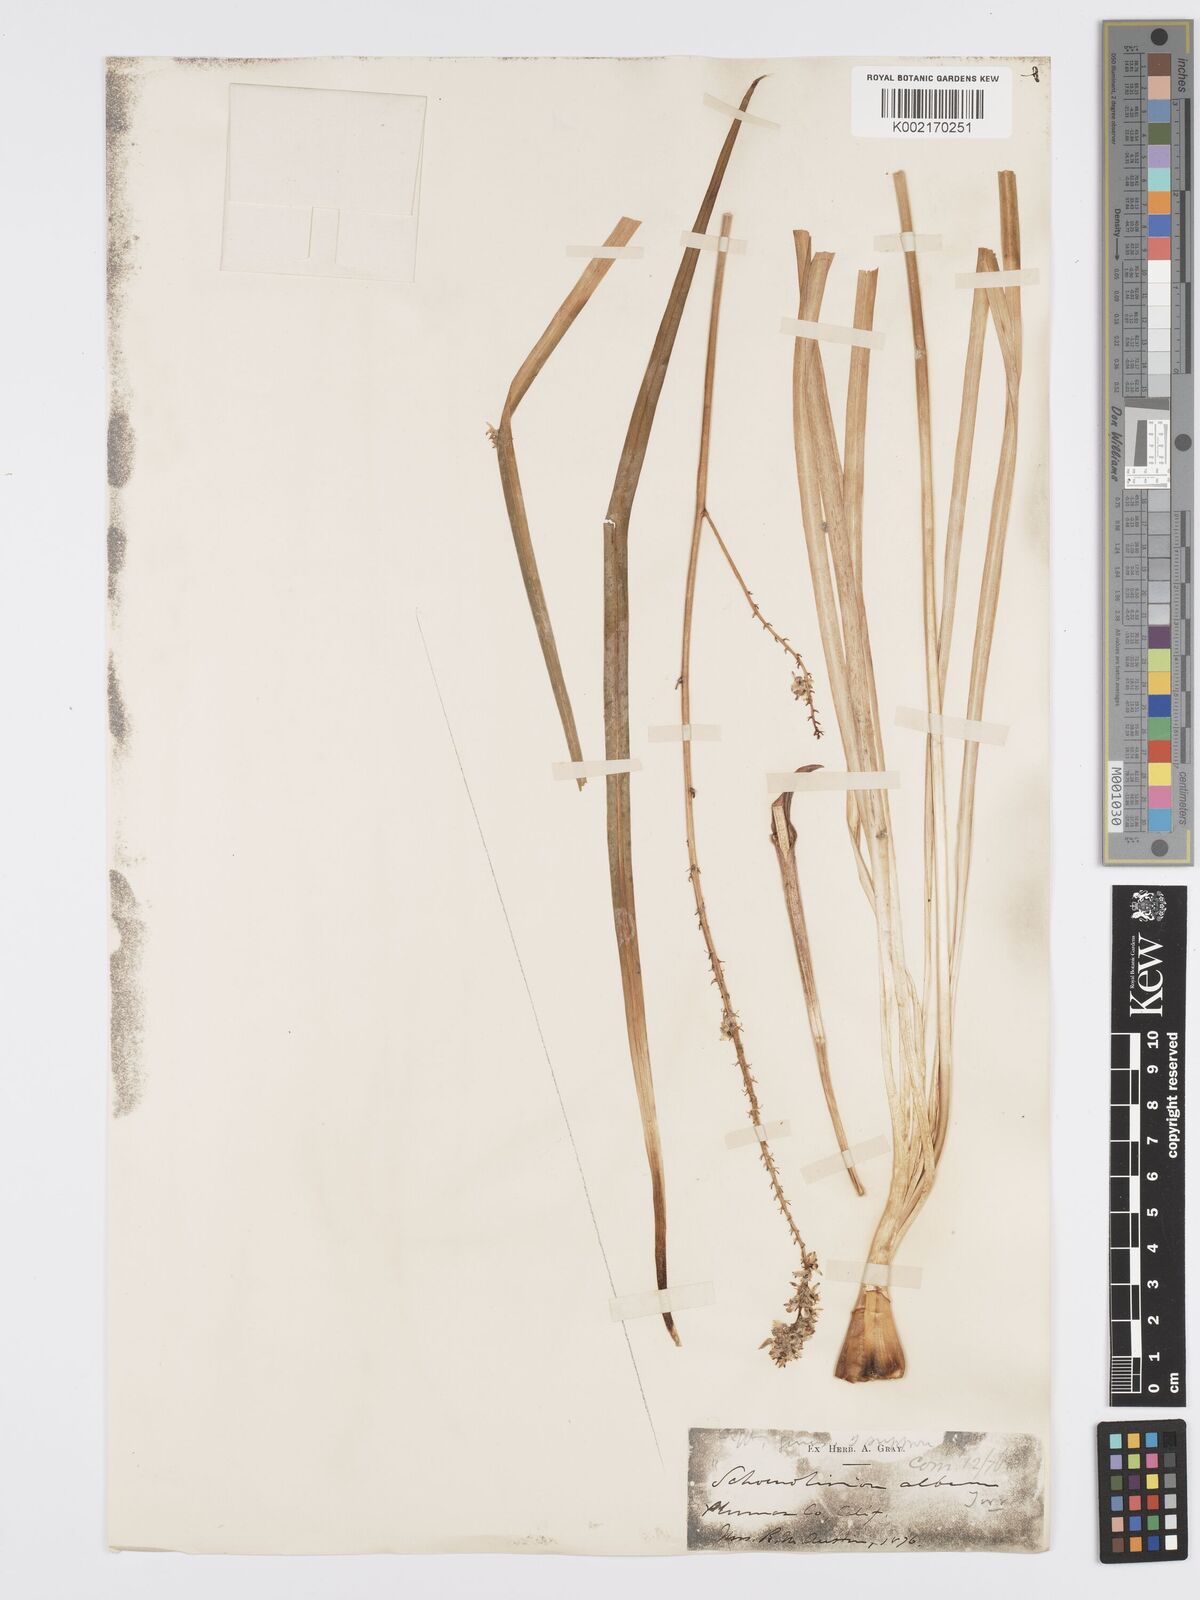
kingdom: Plantae
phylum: Tracheophyta
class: Liliopsida
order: Asparagales
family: Asparagaceae
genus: Hastingsia
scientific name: Hastingsia alba
